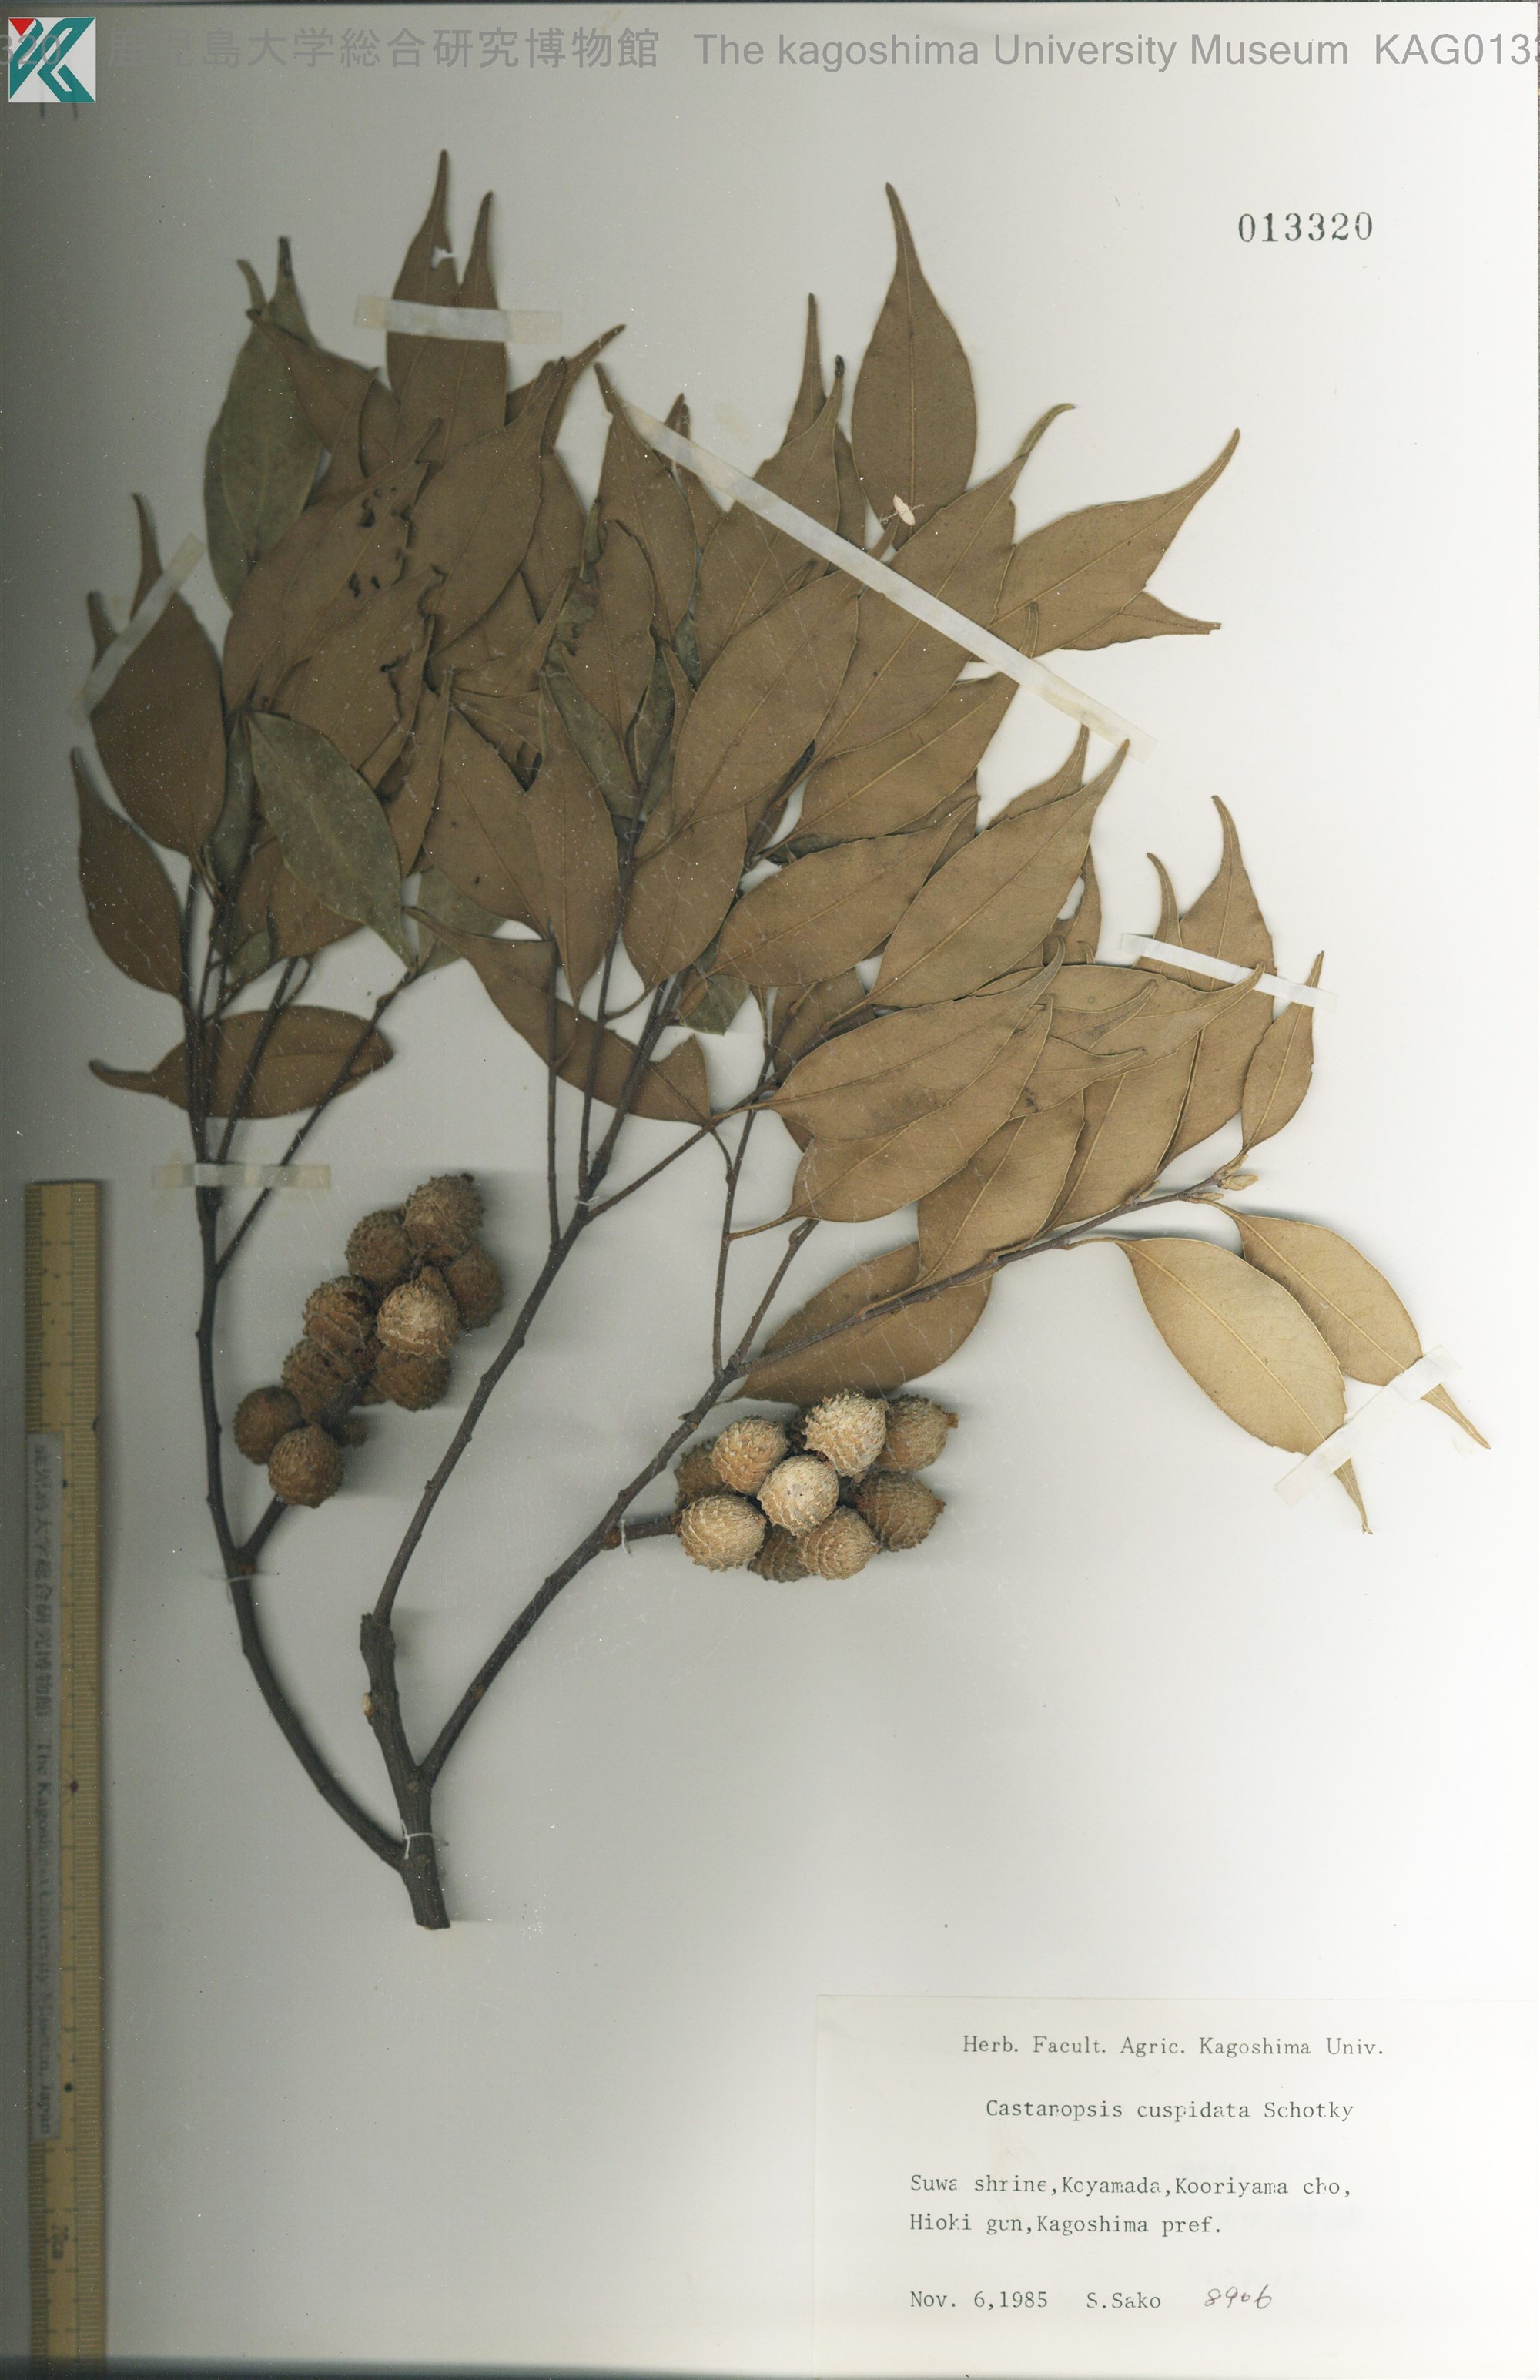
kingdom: Plantae
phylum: Tracheophyta
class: Magnoliopsida
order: Fagales
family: Fagaceae
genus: Castanopsis
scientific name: Castanopsis cuspidata
